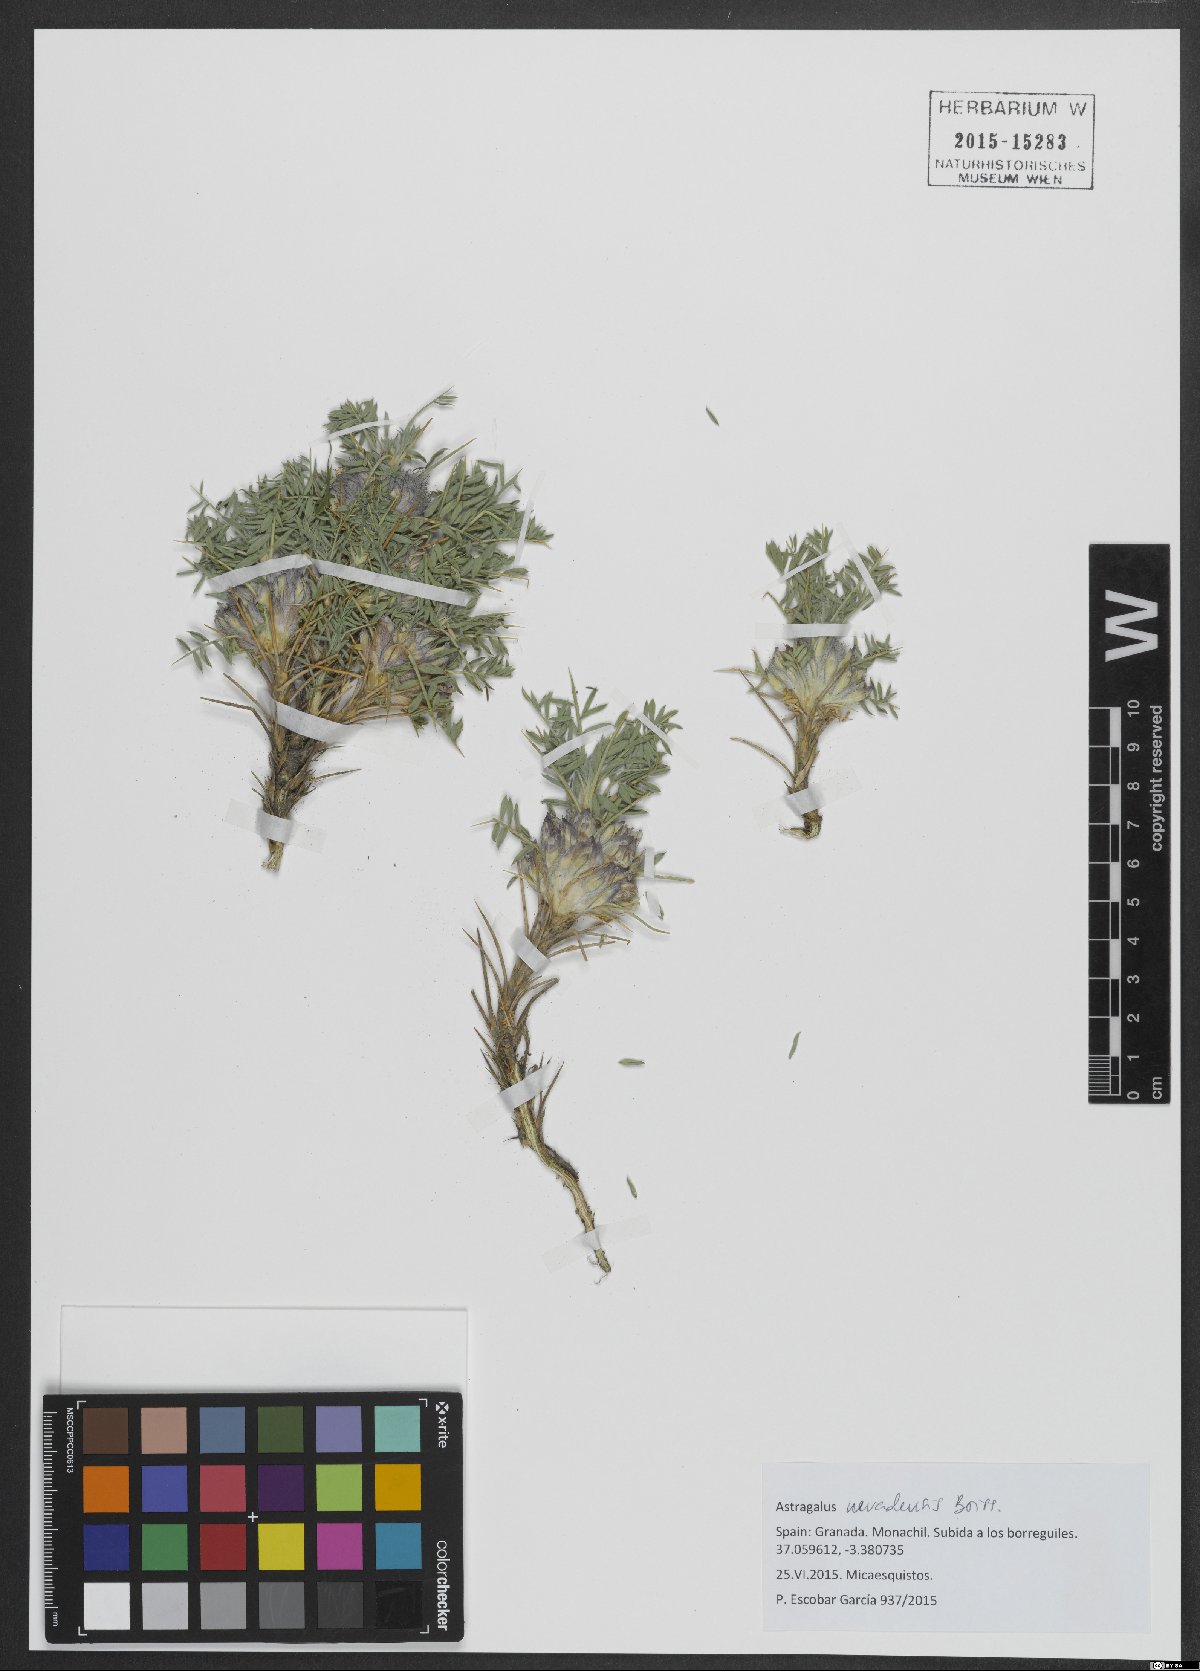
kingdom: Plantae
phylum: Tracheophyta
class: Magnoliopsida
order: Fabales
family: Fabaceae
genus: Astragalus
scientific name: Astragalus nevadensis
